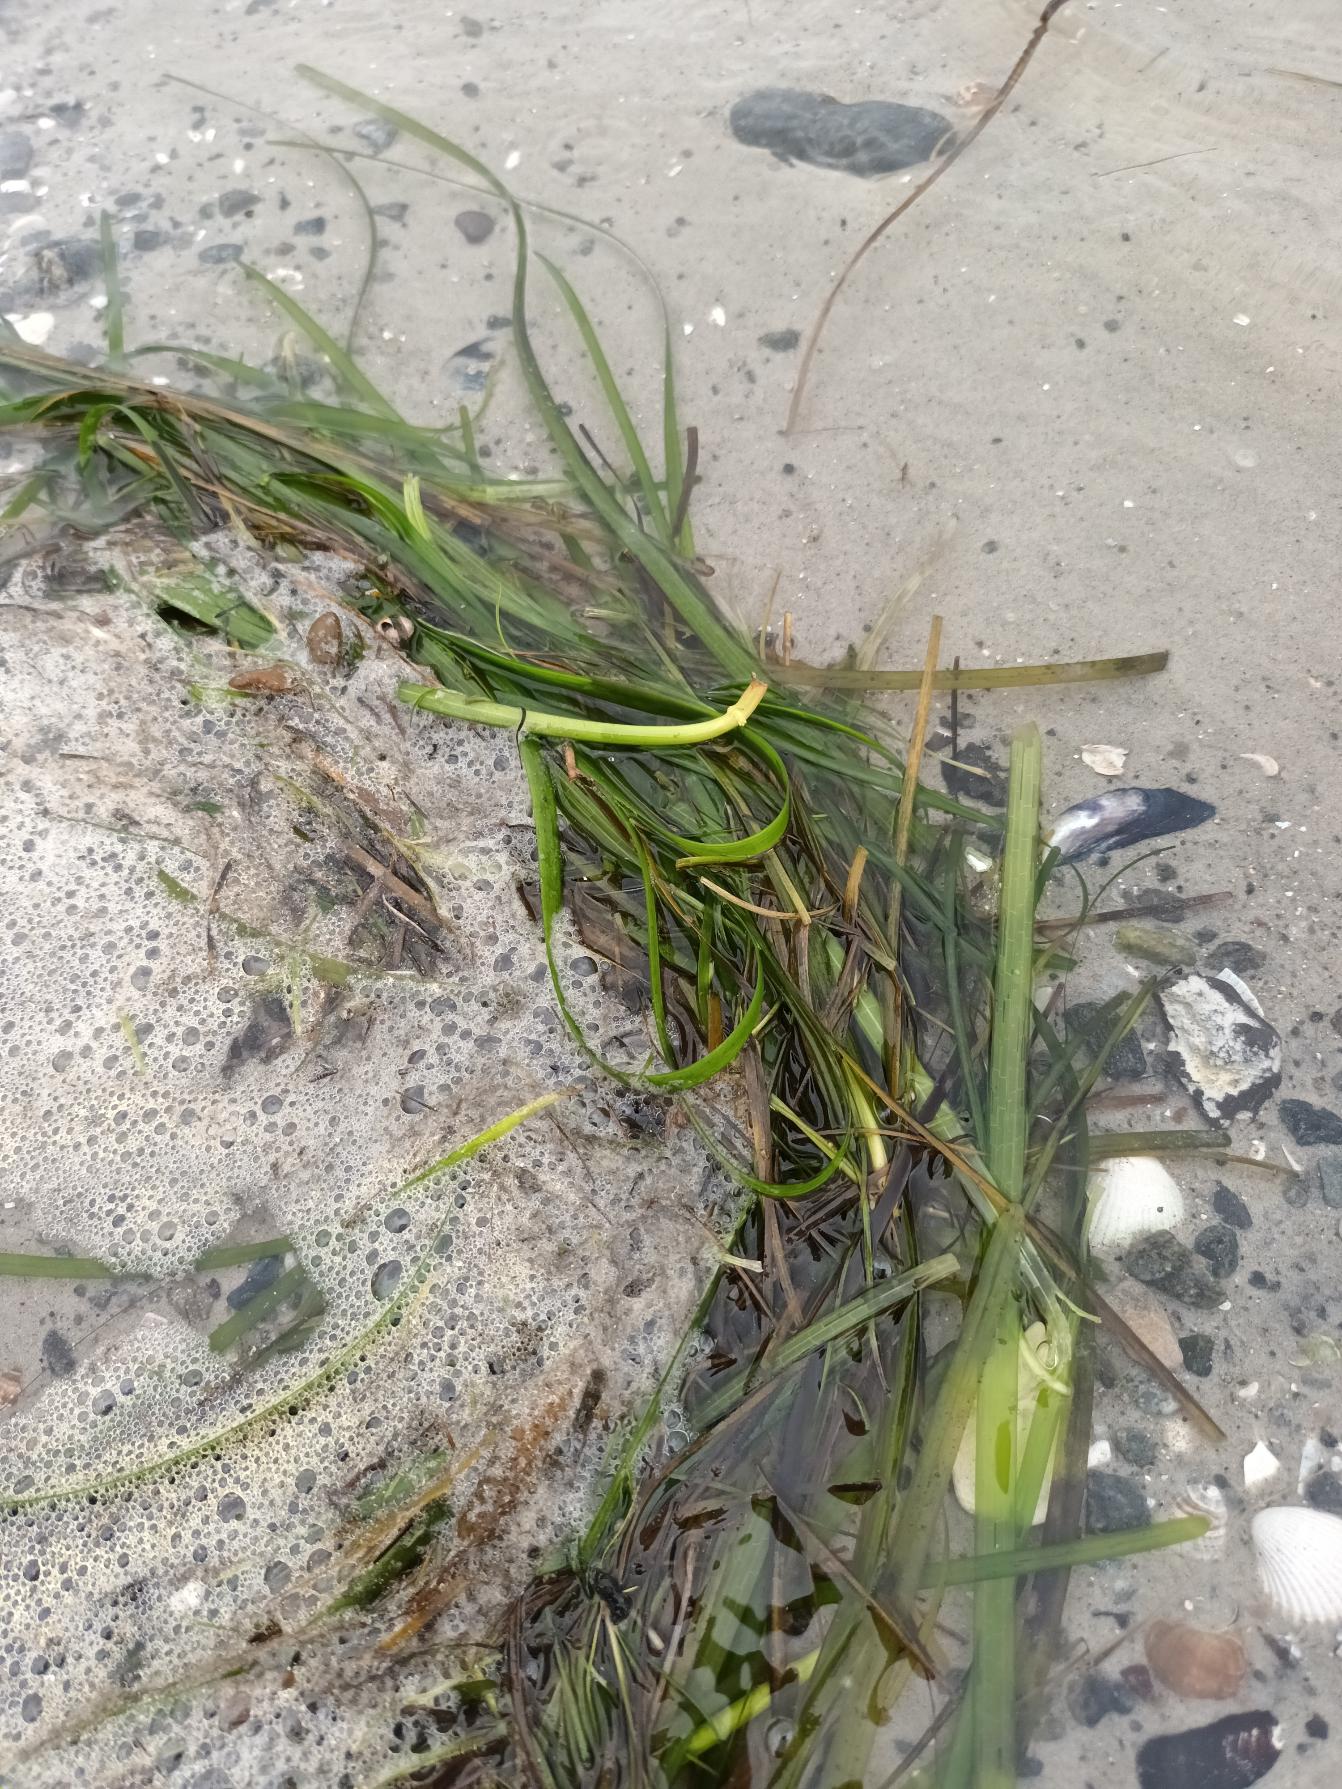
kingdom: Plantae
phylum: Tracheophyta
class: Liliopsida
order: Alismatales
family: Zosteraceae
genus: Zostera
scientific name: Zostera marina
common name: Almindelig bændeltang
